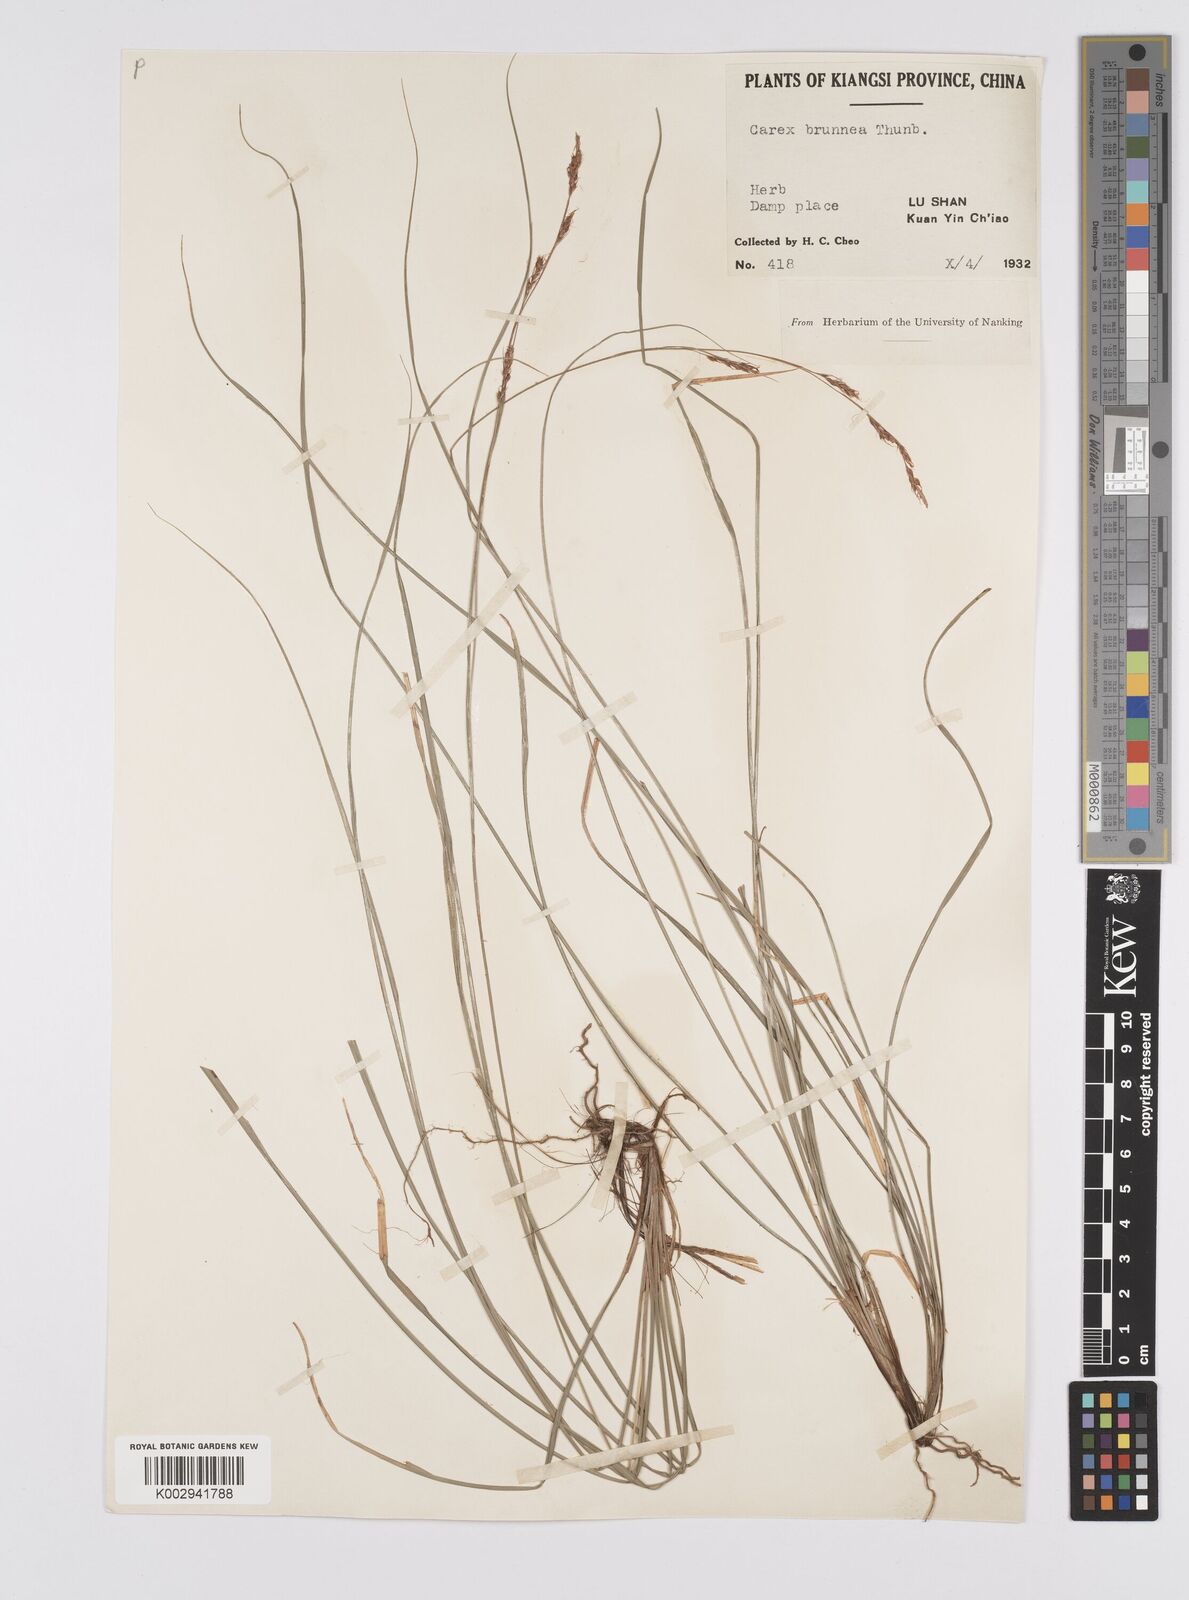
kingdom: Plantae
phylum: Tracheophyta
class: Liliopsida
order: Poales
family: Cyperaceae
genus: Carex
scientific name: Carex brunnea
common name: Greater brown sedge
